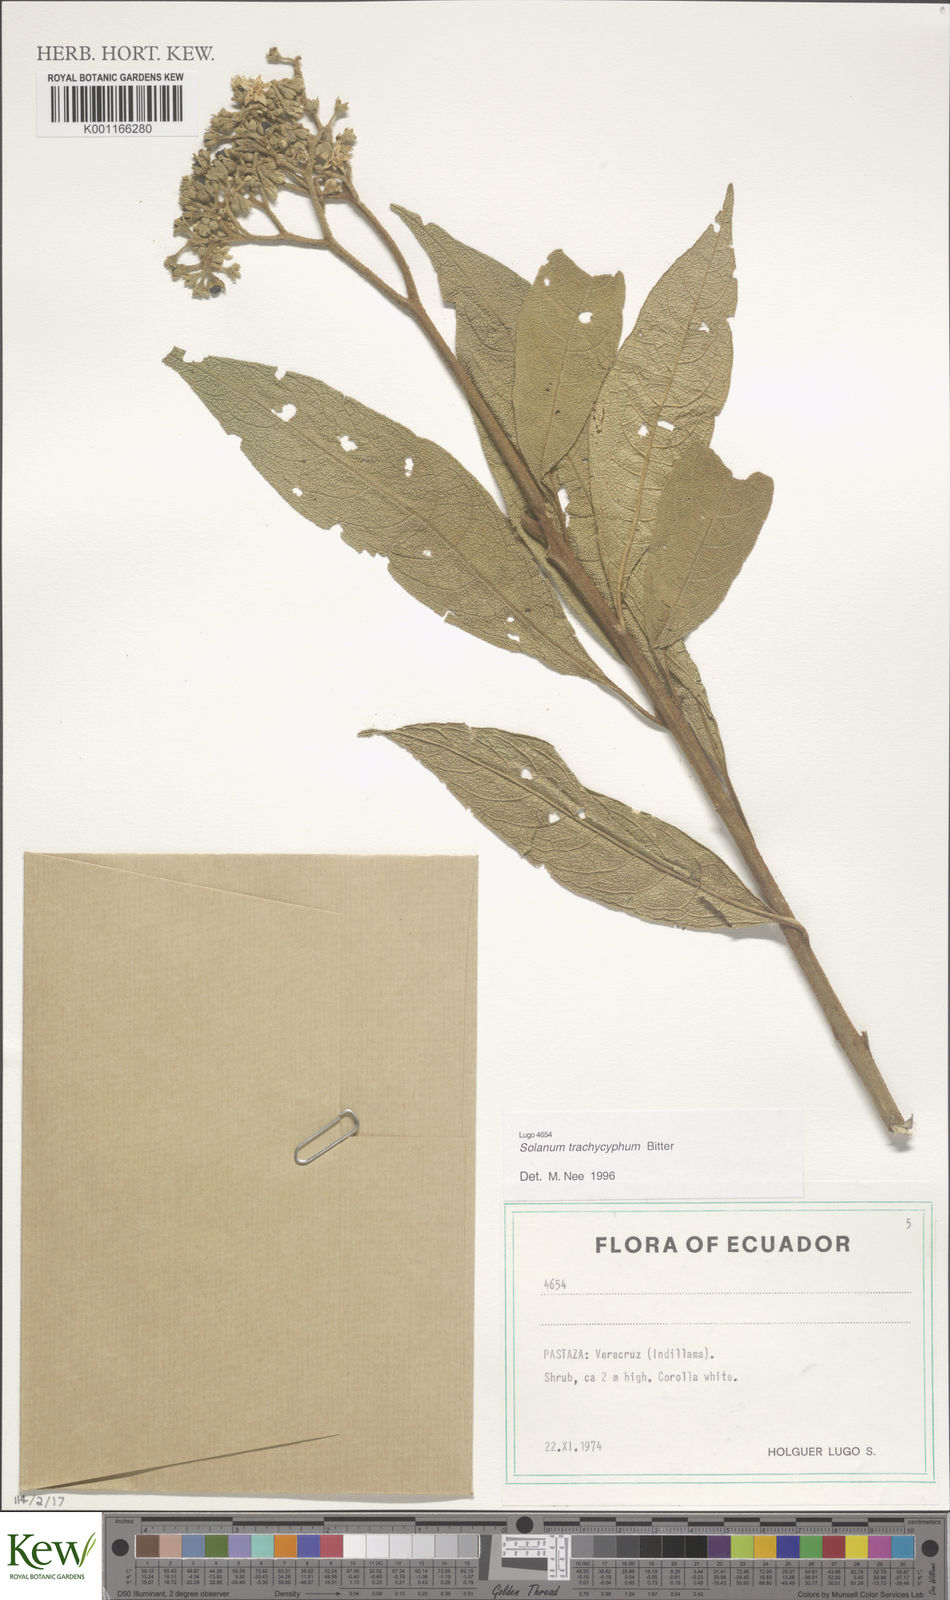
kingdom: Plantae
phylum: Tracheophyta
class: Magnoliopsida
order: Solanales
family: Solanaceae
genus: Solanum
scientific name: Solanum trachycyphum
